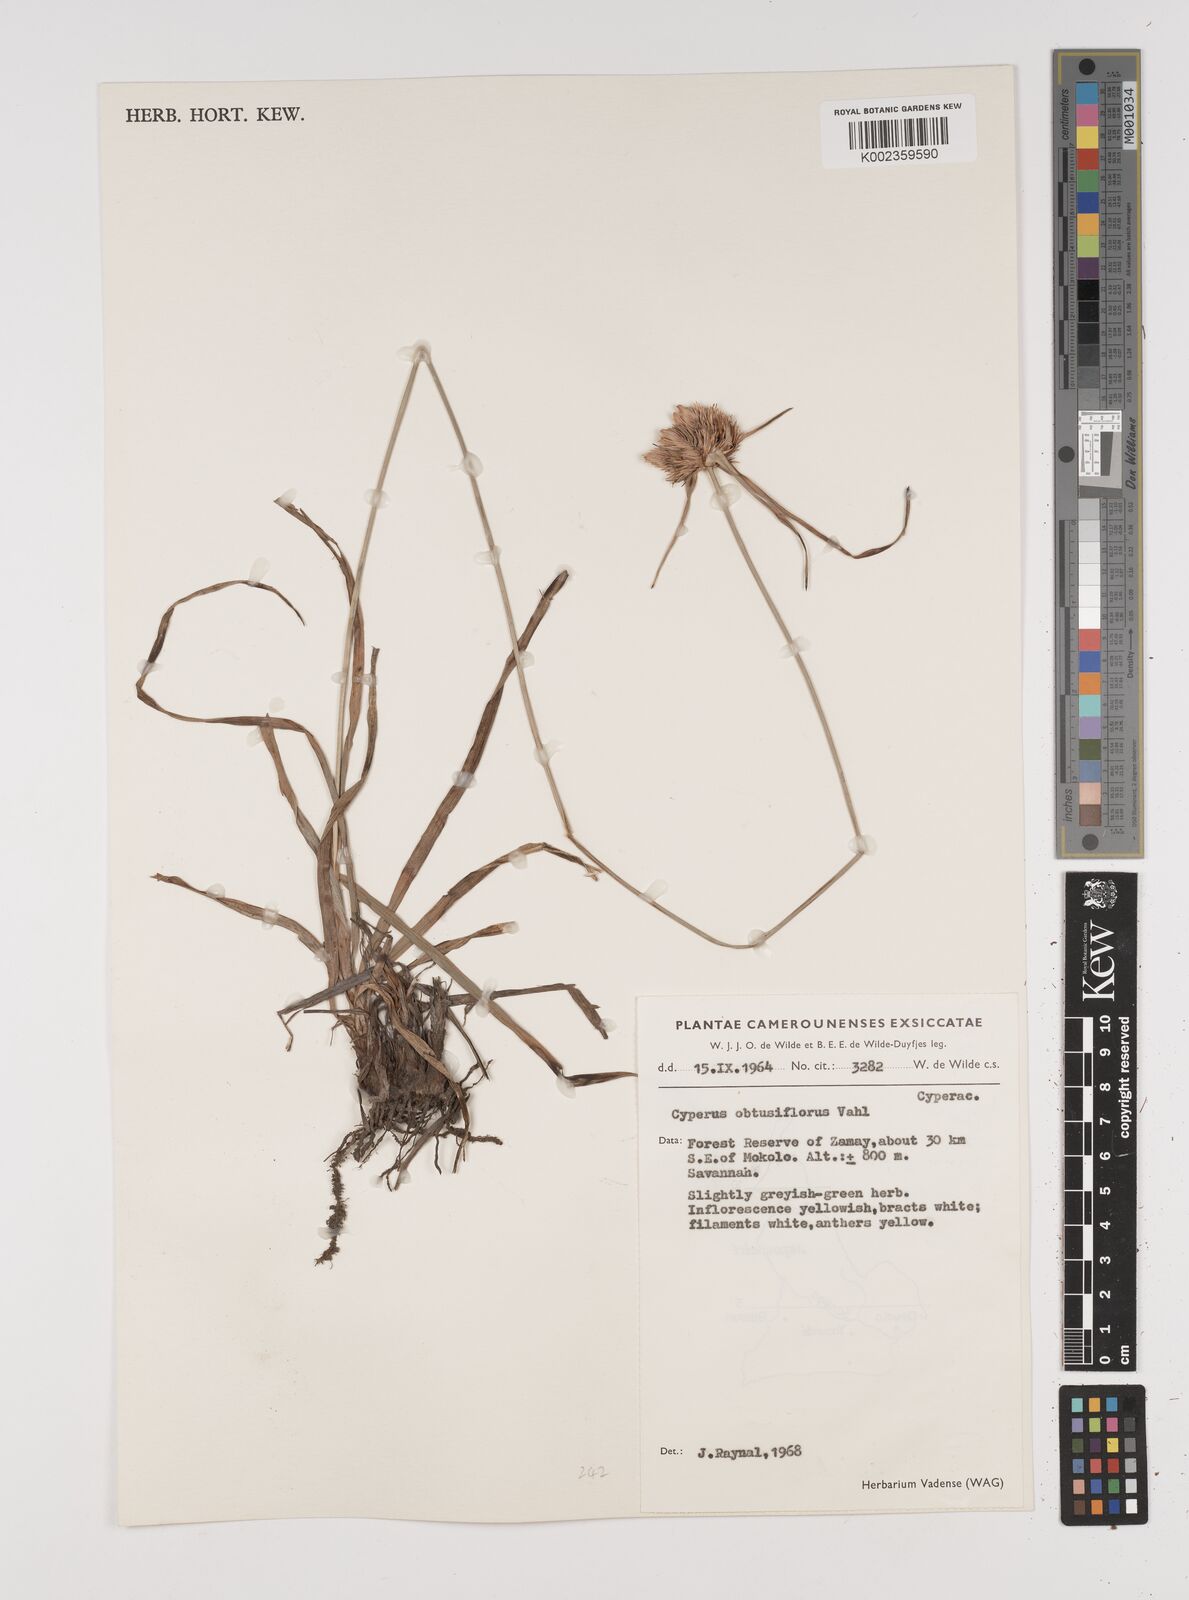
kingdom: Plantae
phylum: Tracheophyta
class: Liliopsida
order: Poales
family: Cyperaceae
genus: Cyperus
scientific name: Cyperus niveus
